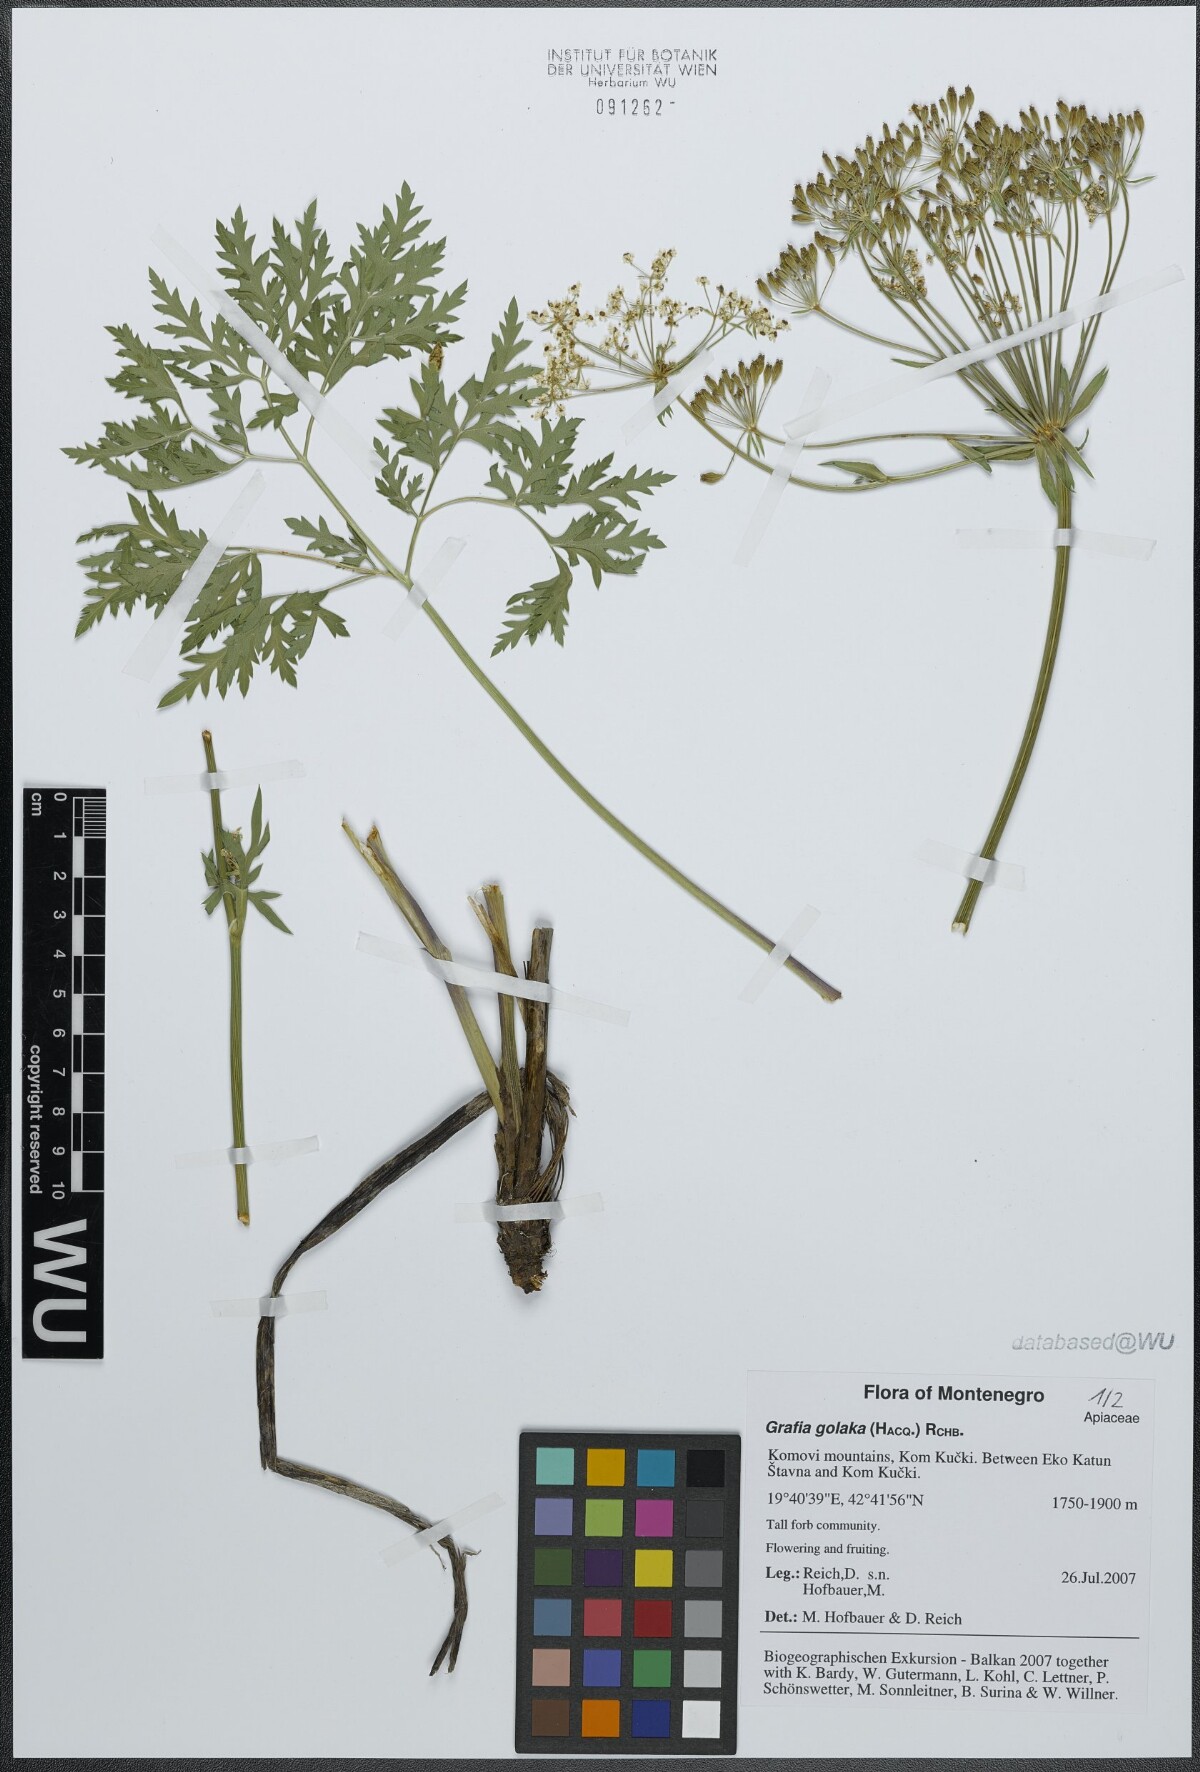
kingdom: Plantae
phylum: Tracheophyta
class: Magnoliopsida
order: Apiales
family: Apiaceae
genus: Grafia
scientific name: Grafia golaka
